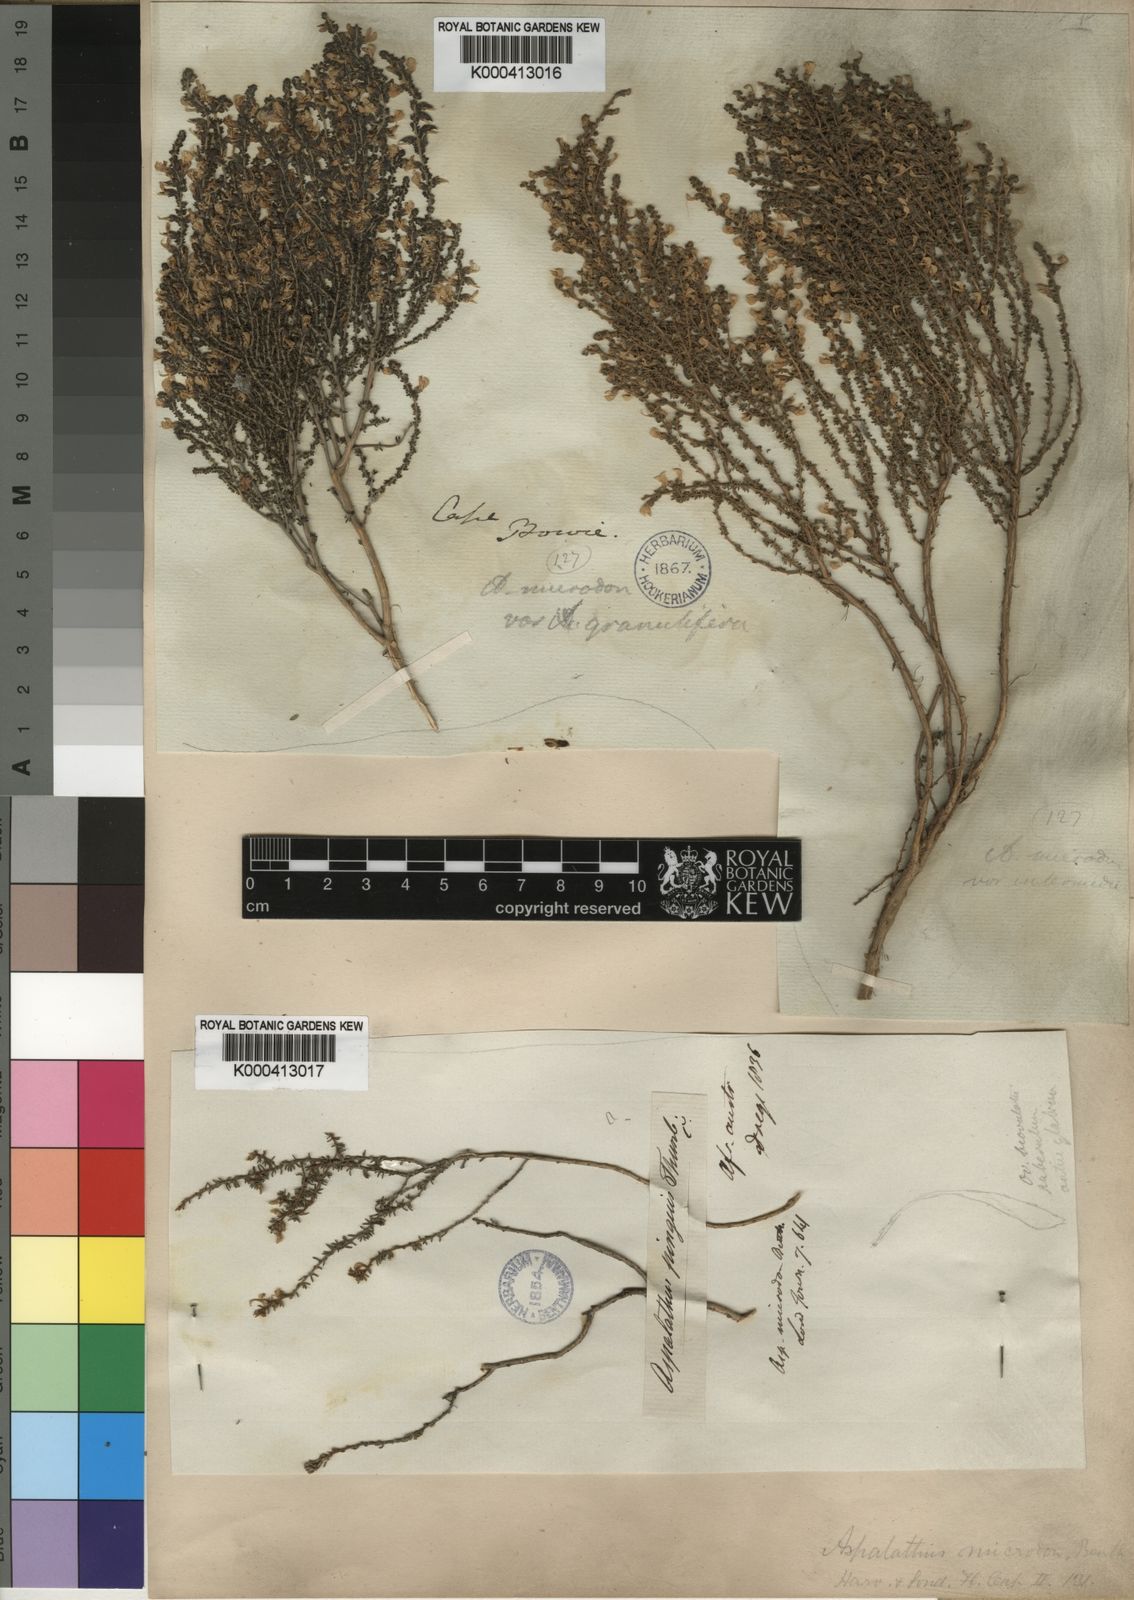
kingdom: Plantae
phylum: Tracheophyta
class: Magnoliopsida
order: Fabales
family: Fabaceae
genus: Aspalathus
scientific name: Aspalathus mundiana
